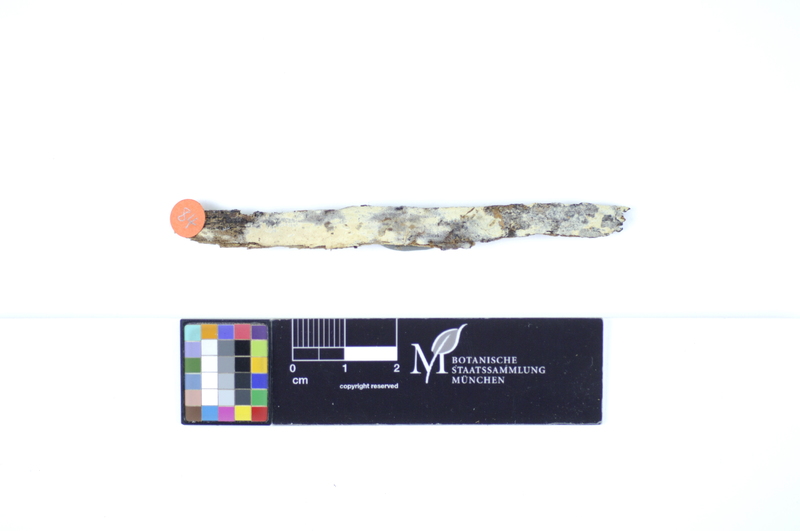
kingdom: Plantae
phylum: Tracheophyta
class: Magnoliopsida
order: Fagales
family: Fagaceae
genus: Fagus
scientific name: Fagus sylvatica
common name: Beech
